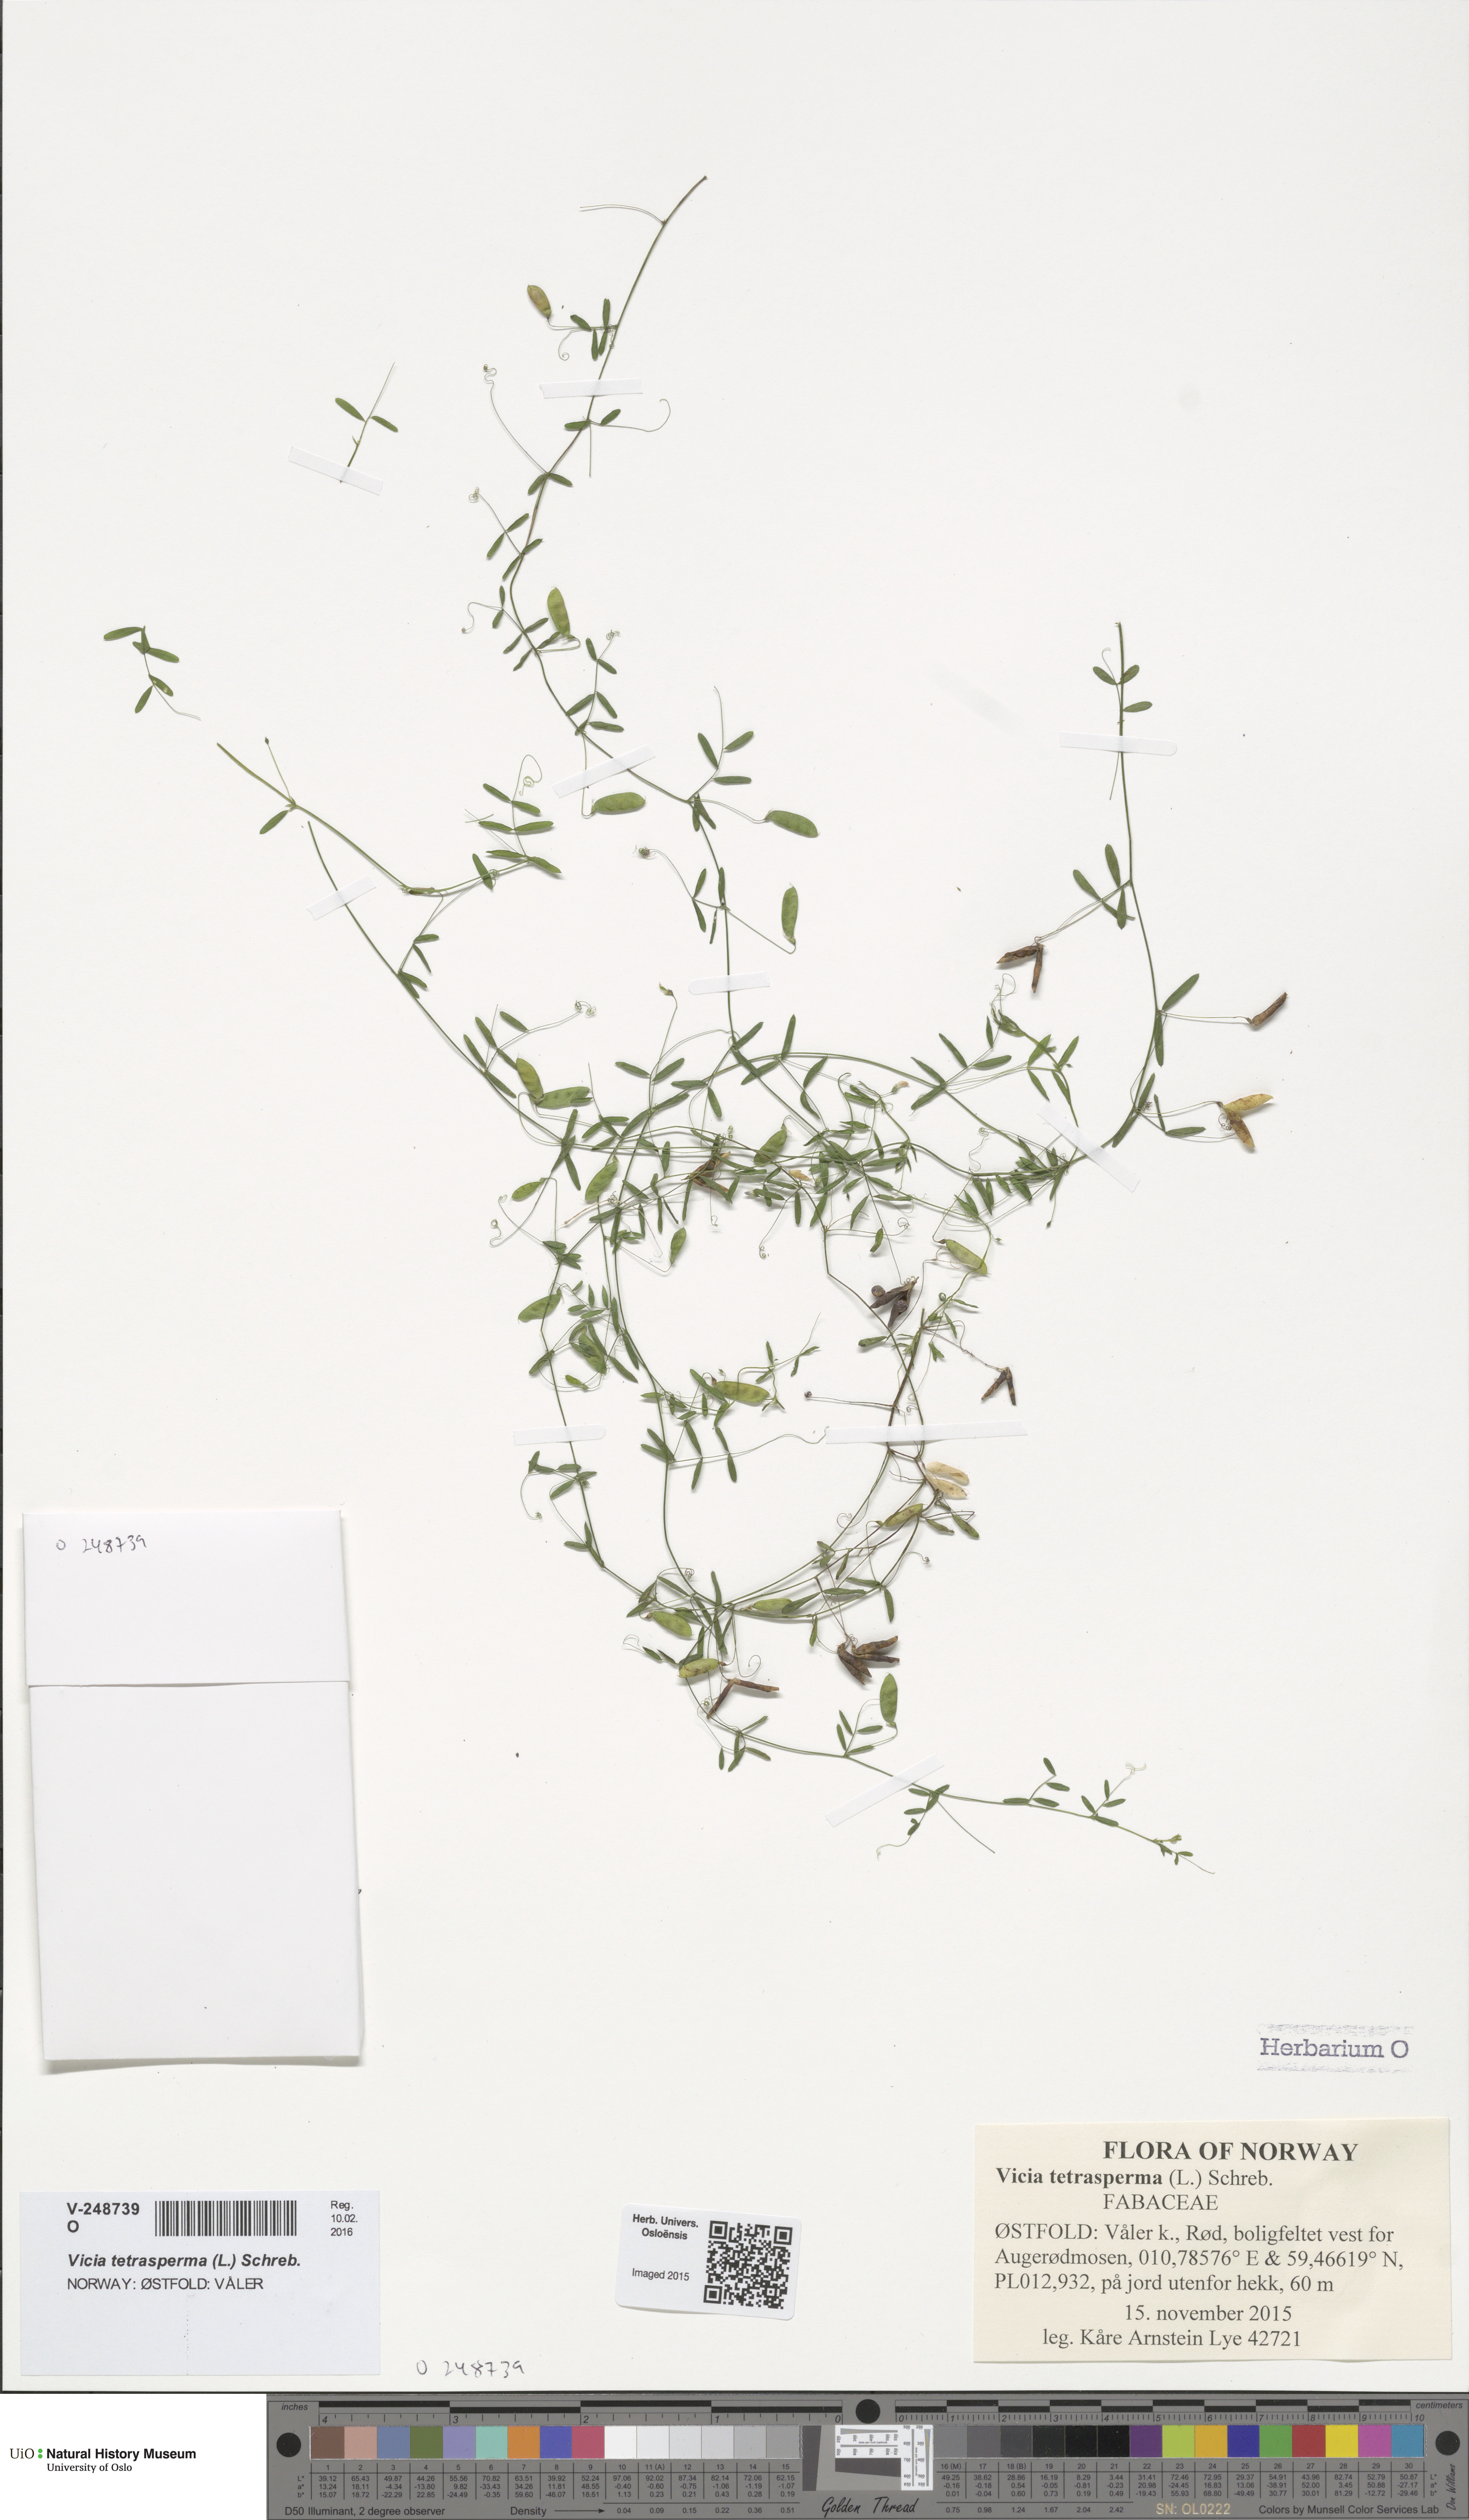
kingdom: Plantae
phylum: Tracheophyta
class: Magnoliopsida
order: Fabales
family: Fabaceae
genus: Vicia
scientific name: Vicia tetrasperma
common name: Smooth tare
